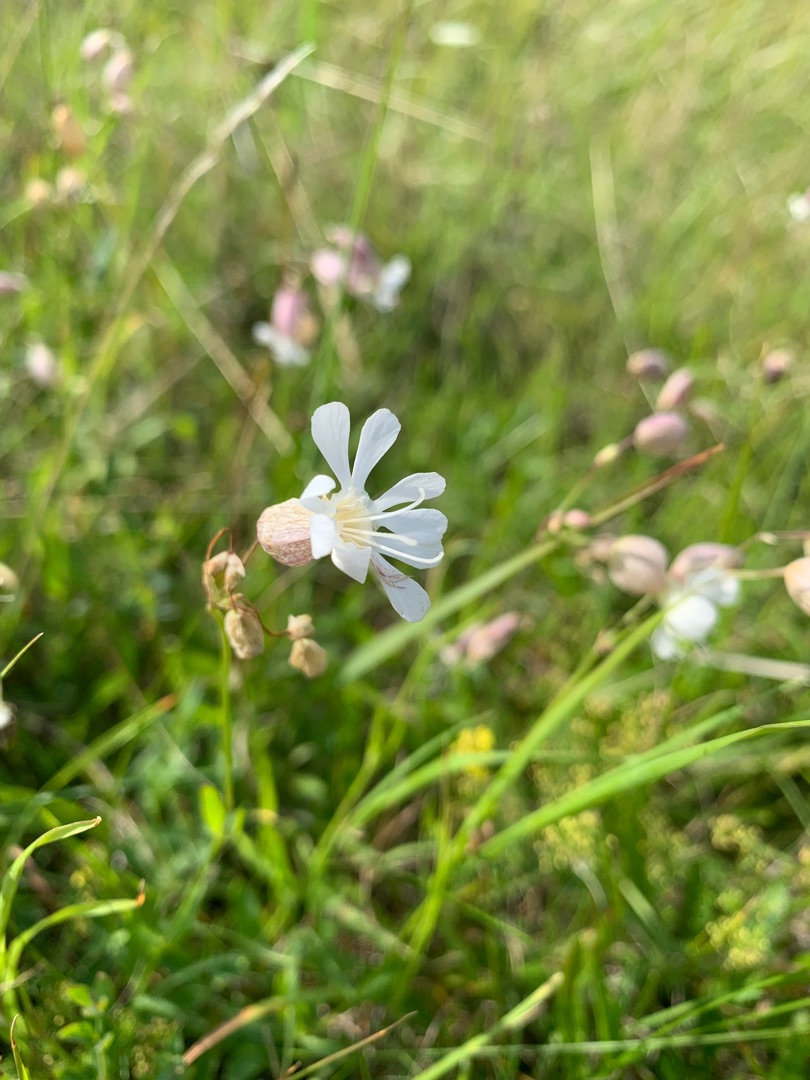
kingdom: Plantae
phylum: Tracheophyta
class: Magnoliopsida
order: Caryophyllales
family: Caryophyllaceae
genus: Silene
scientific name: Silene vulgaris
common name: Blæresmælde
